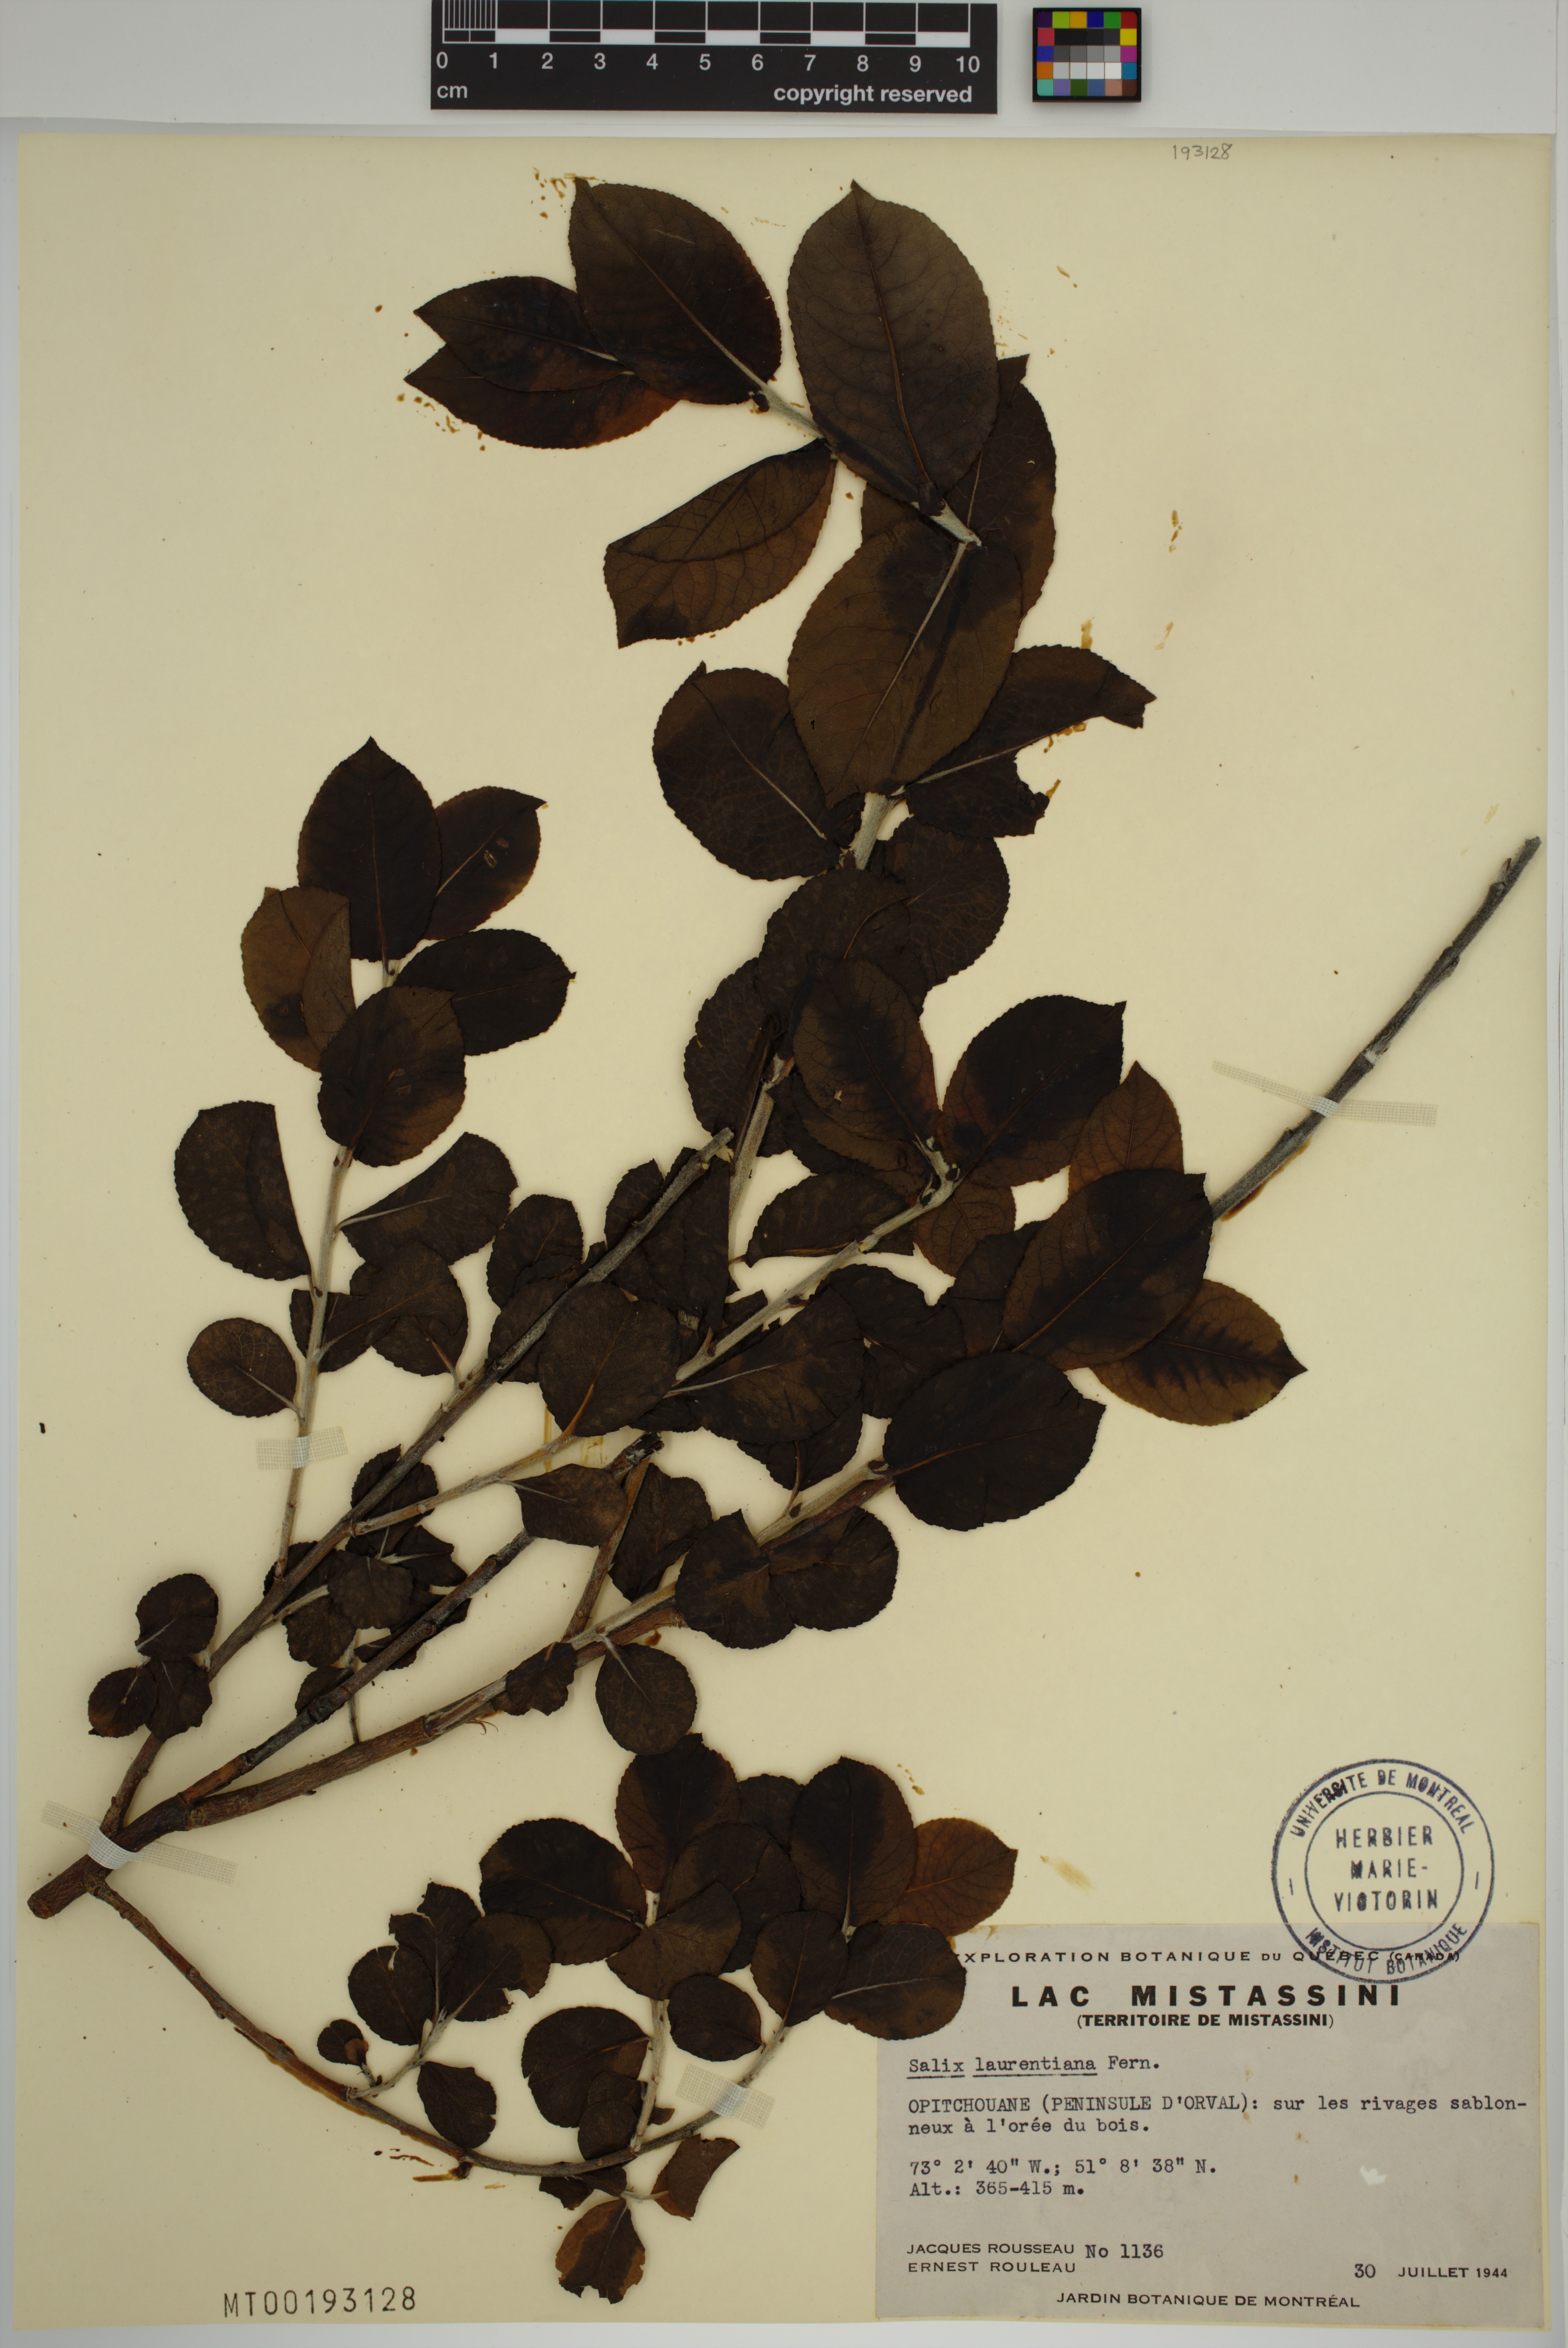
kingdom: Plantae
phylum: Tracheophyta
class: Magnoliopsida
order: Malpighiales
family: Salicaceae
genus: Salix
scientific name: Salix laurentiana
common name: Gulf of st. lawrence willow
